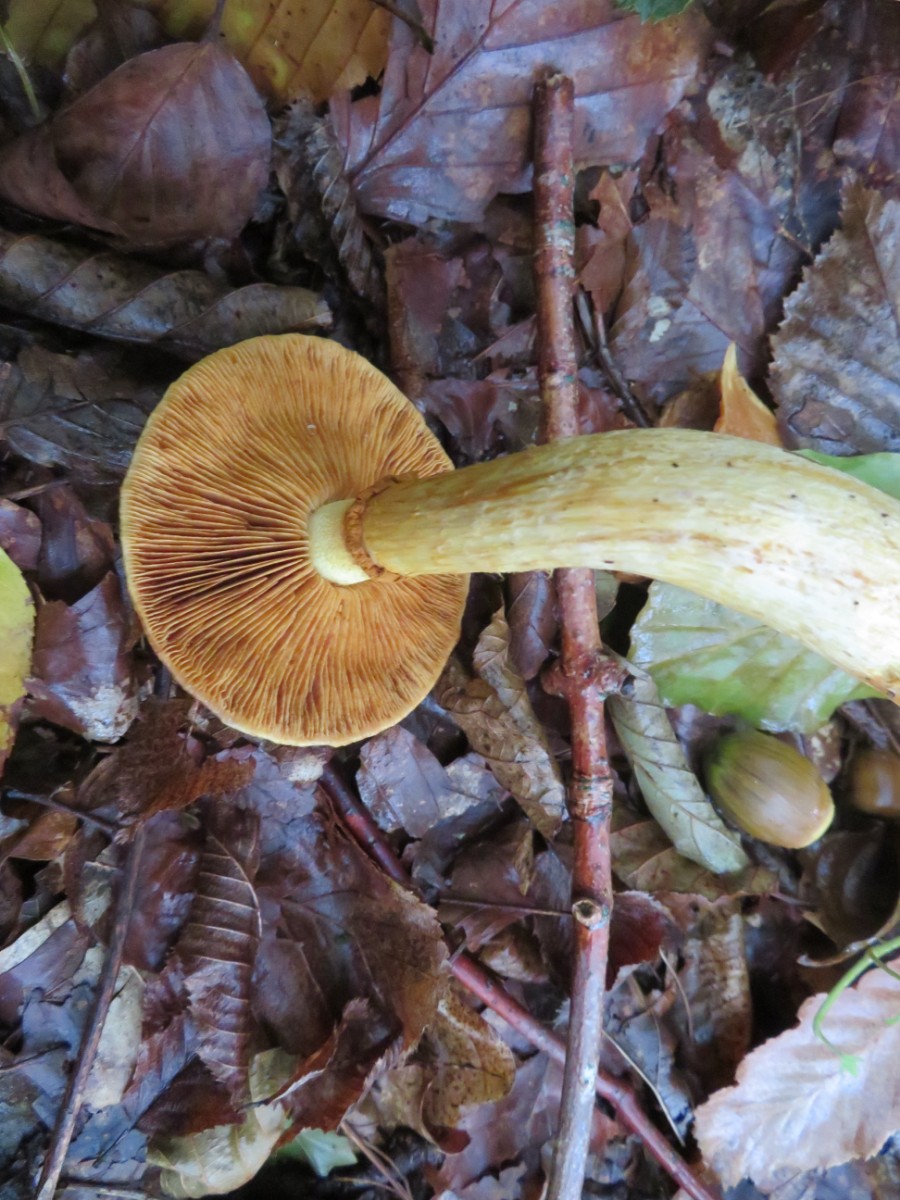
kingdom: Fungi
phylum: Basidiomycota
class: Agaricomycetes
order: Agaricales
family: Hymenogastraceae
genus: Gymnopilus
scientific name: Gymnopilus spectabilis
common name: fibret flammehat
